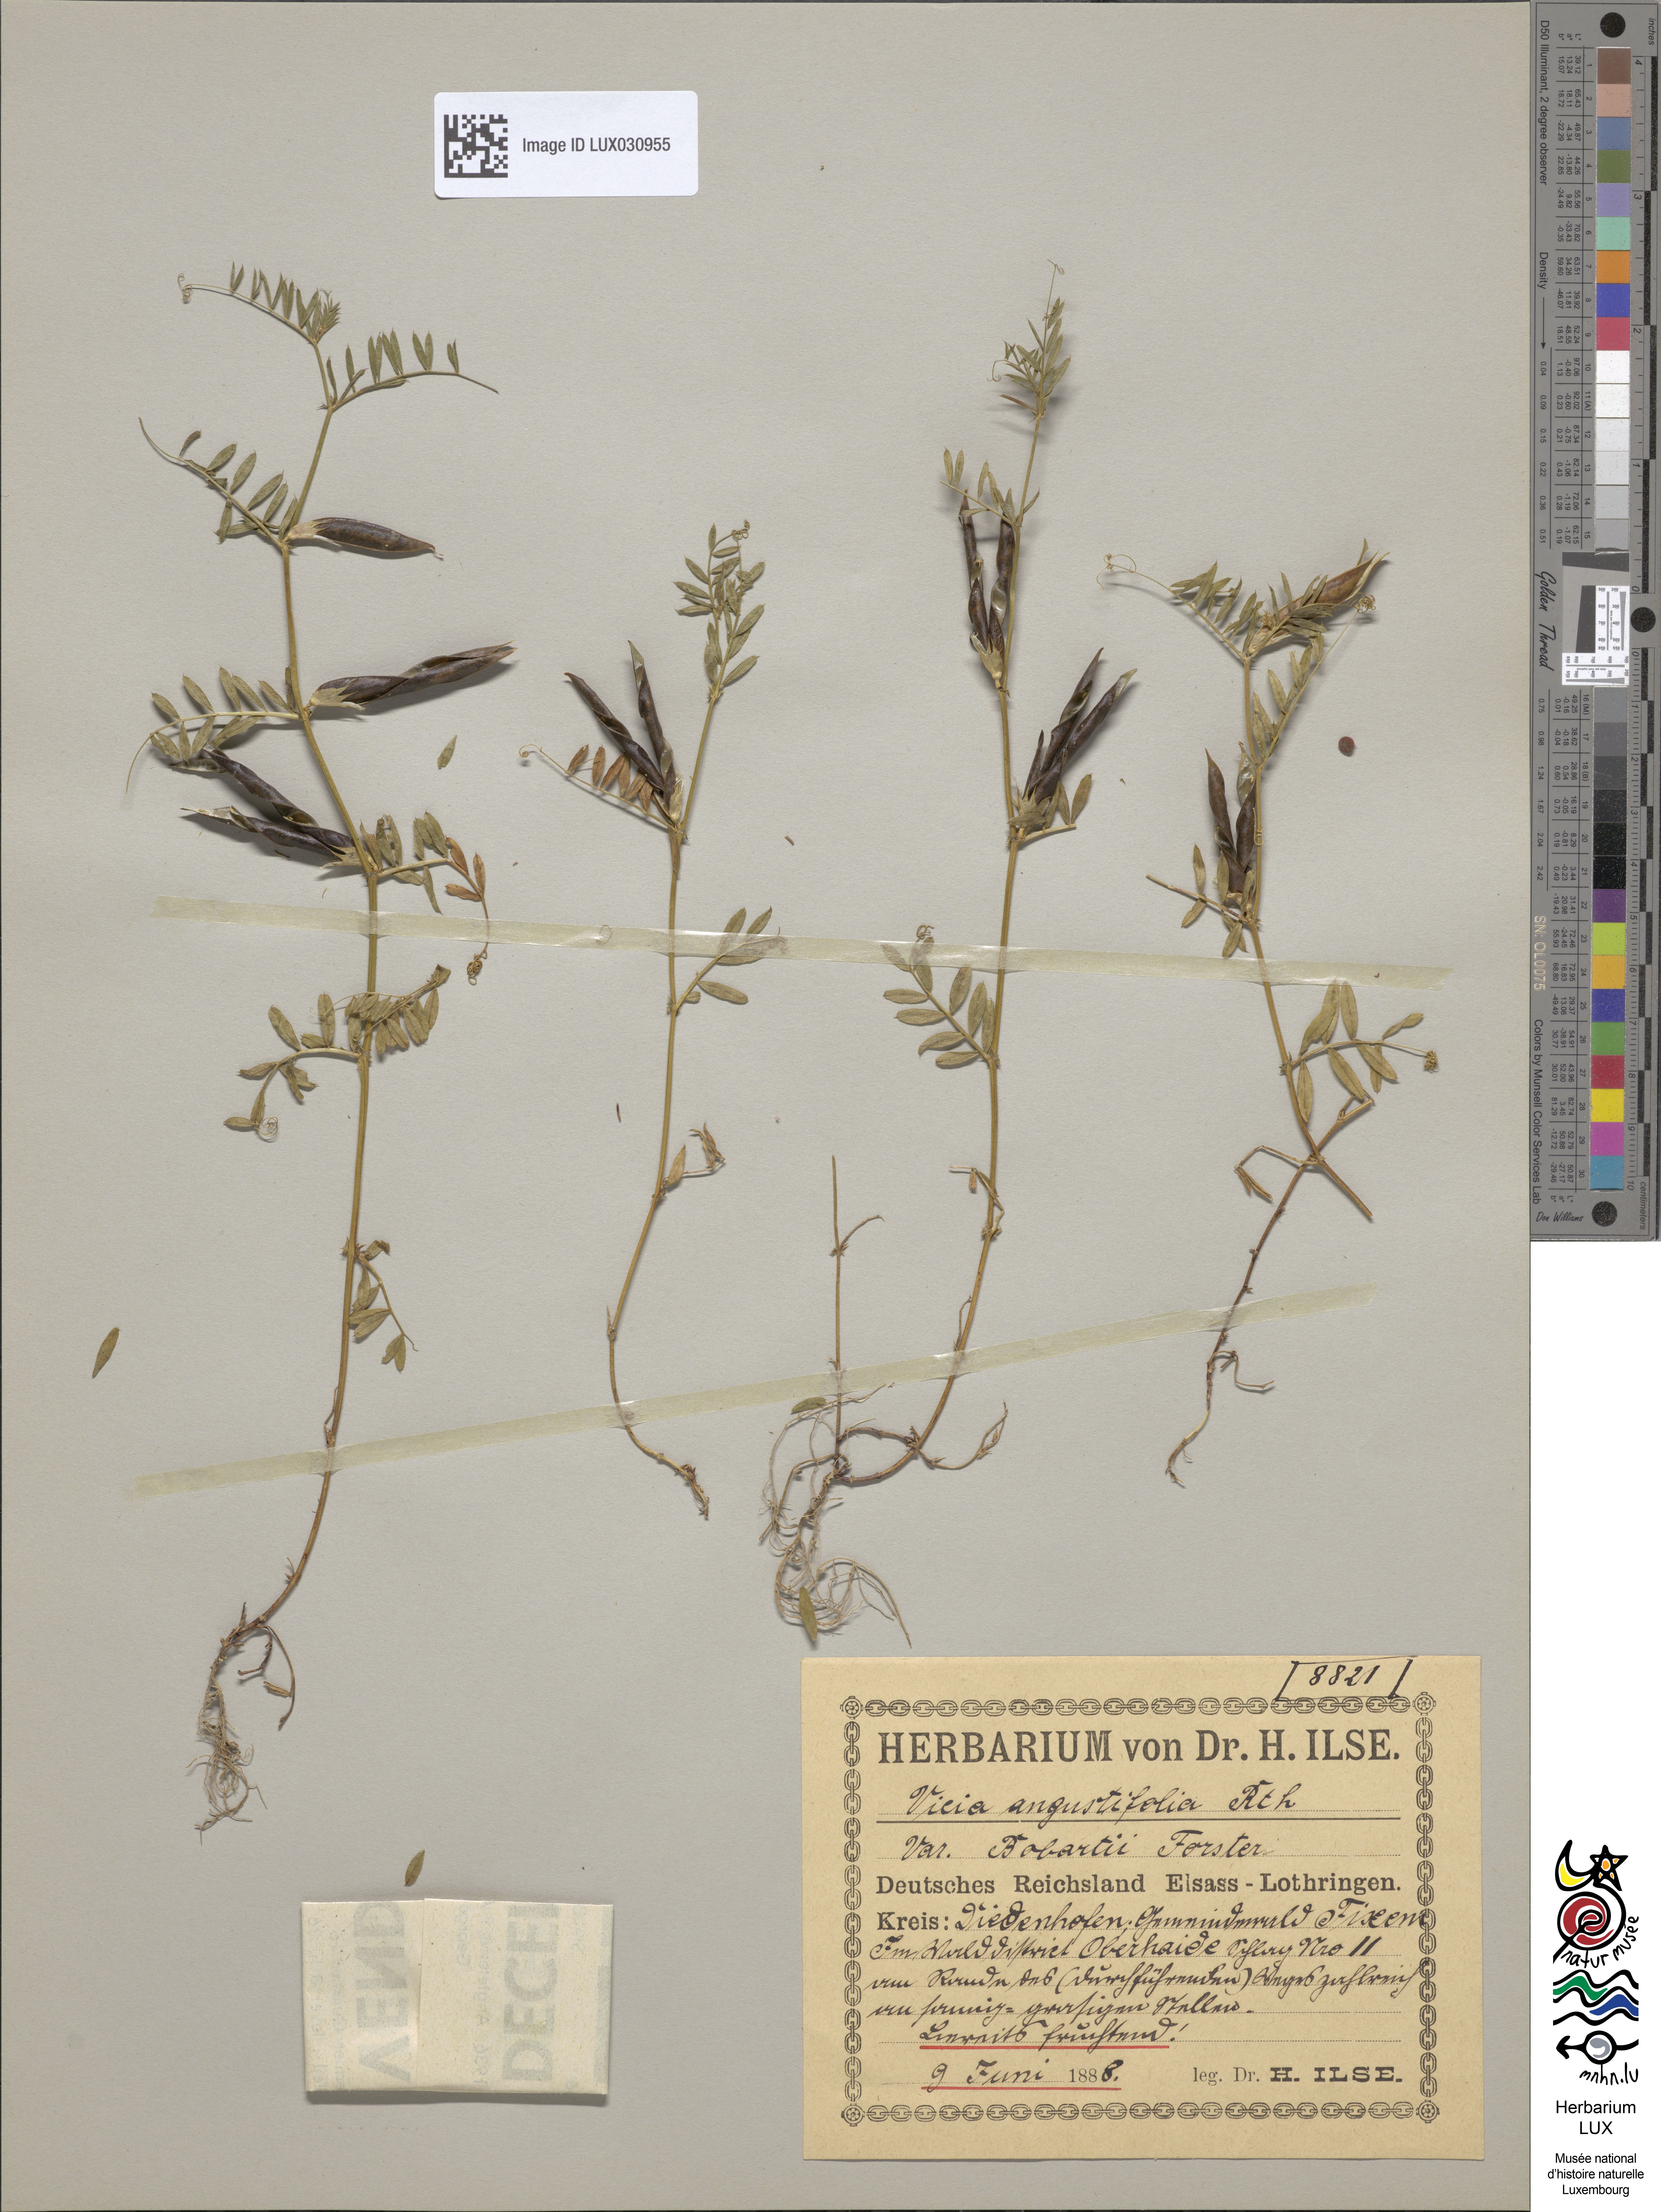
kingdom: Plantae
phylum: Tracheophyta
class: Magnoliopsida
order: Fabales
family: Fabaceae
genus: Vicia
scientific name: Vicia sativa
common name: Garden vetch
